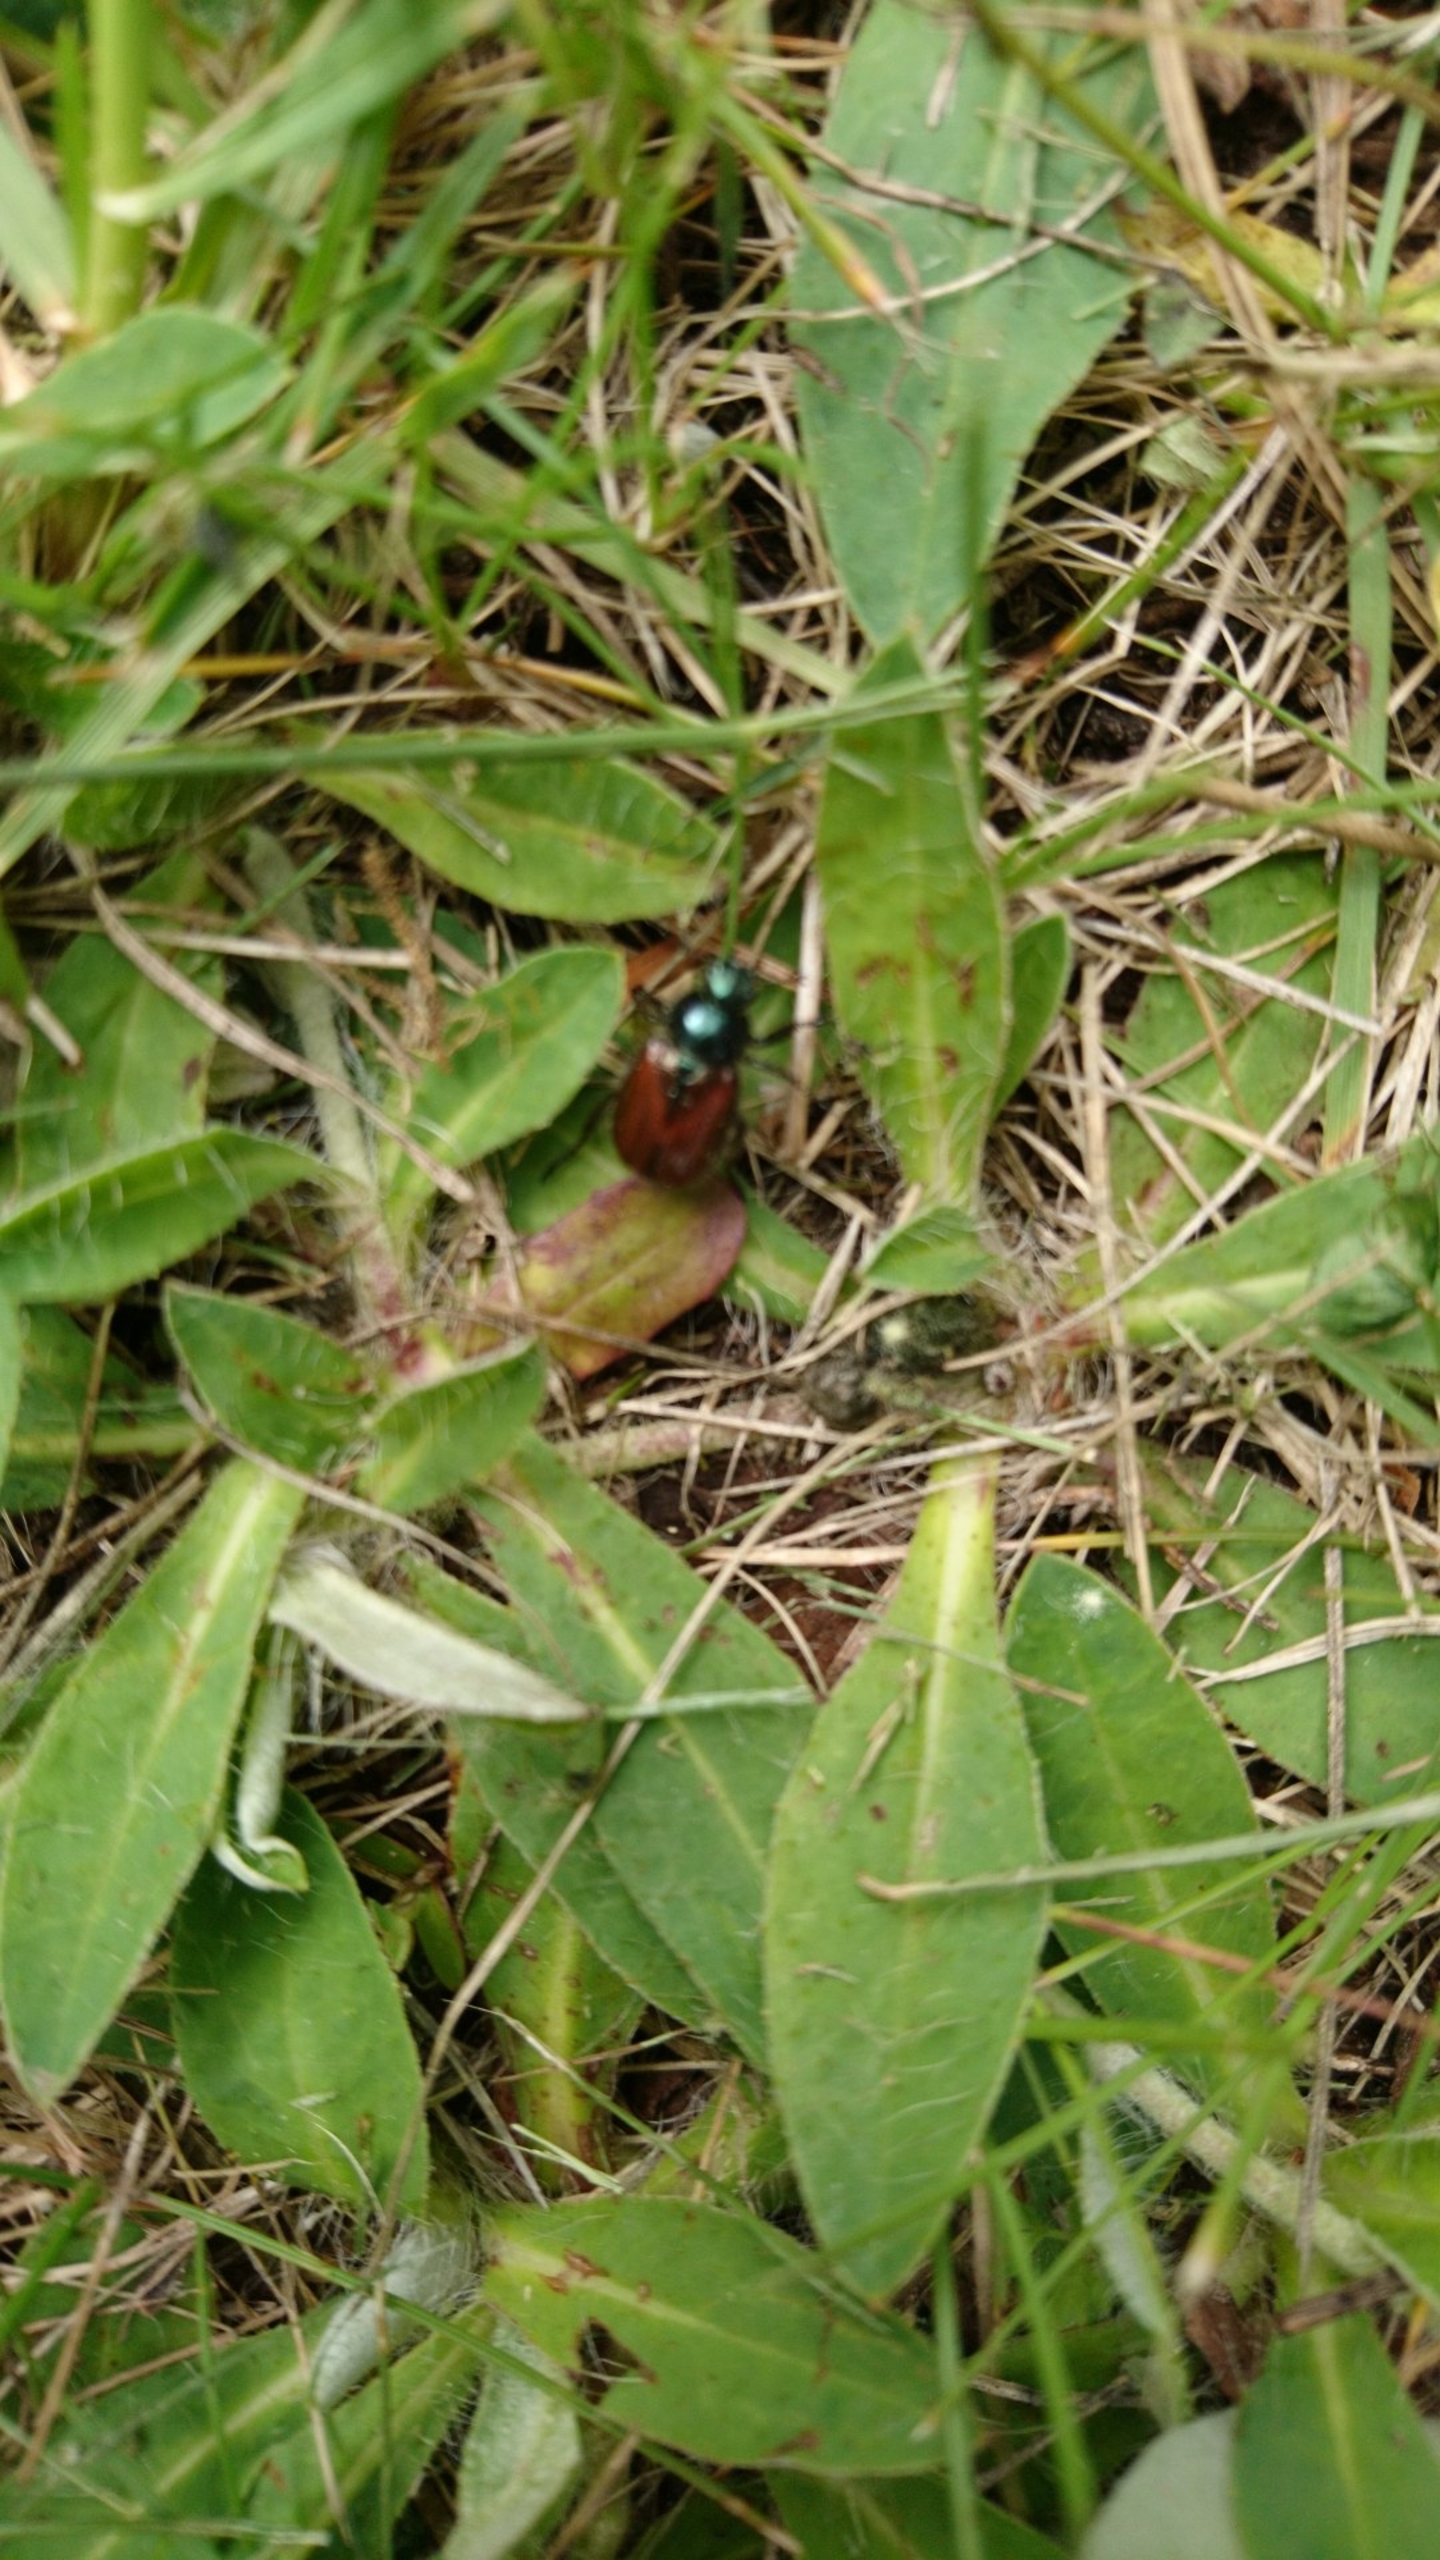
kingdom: Animalia
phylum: Arthropoda
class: Insecta
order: Coleoptera
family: Scarabaeidae
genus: Phyllopertha
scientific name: Phyllopertha horticola
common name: Gåsebille
